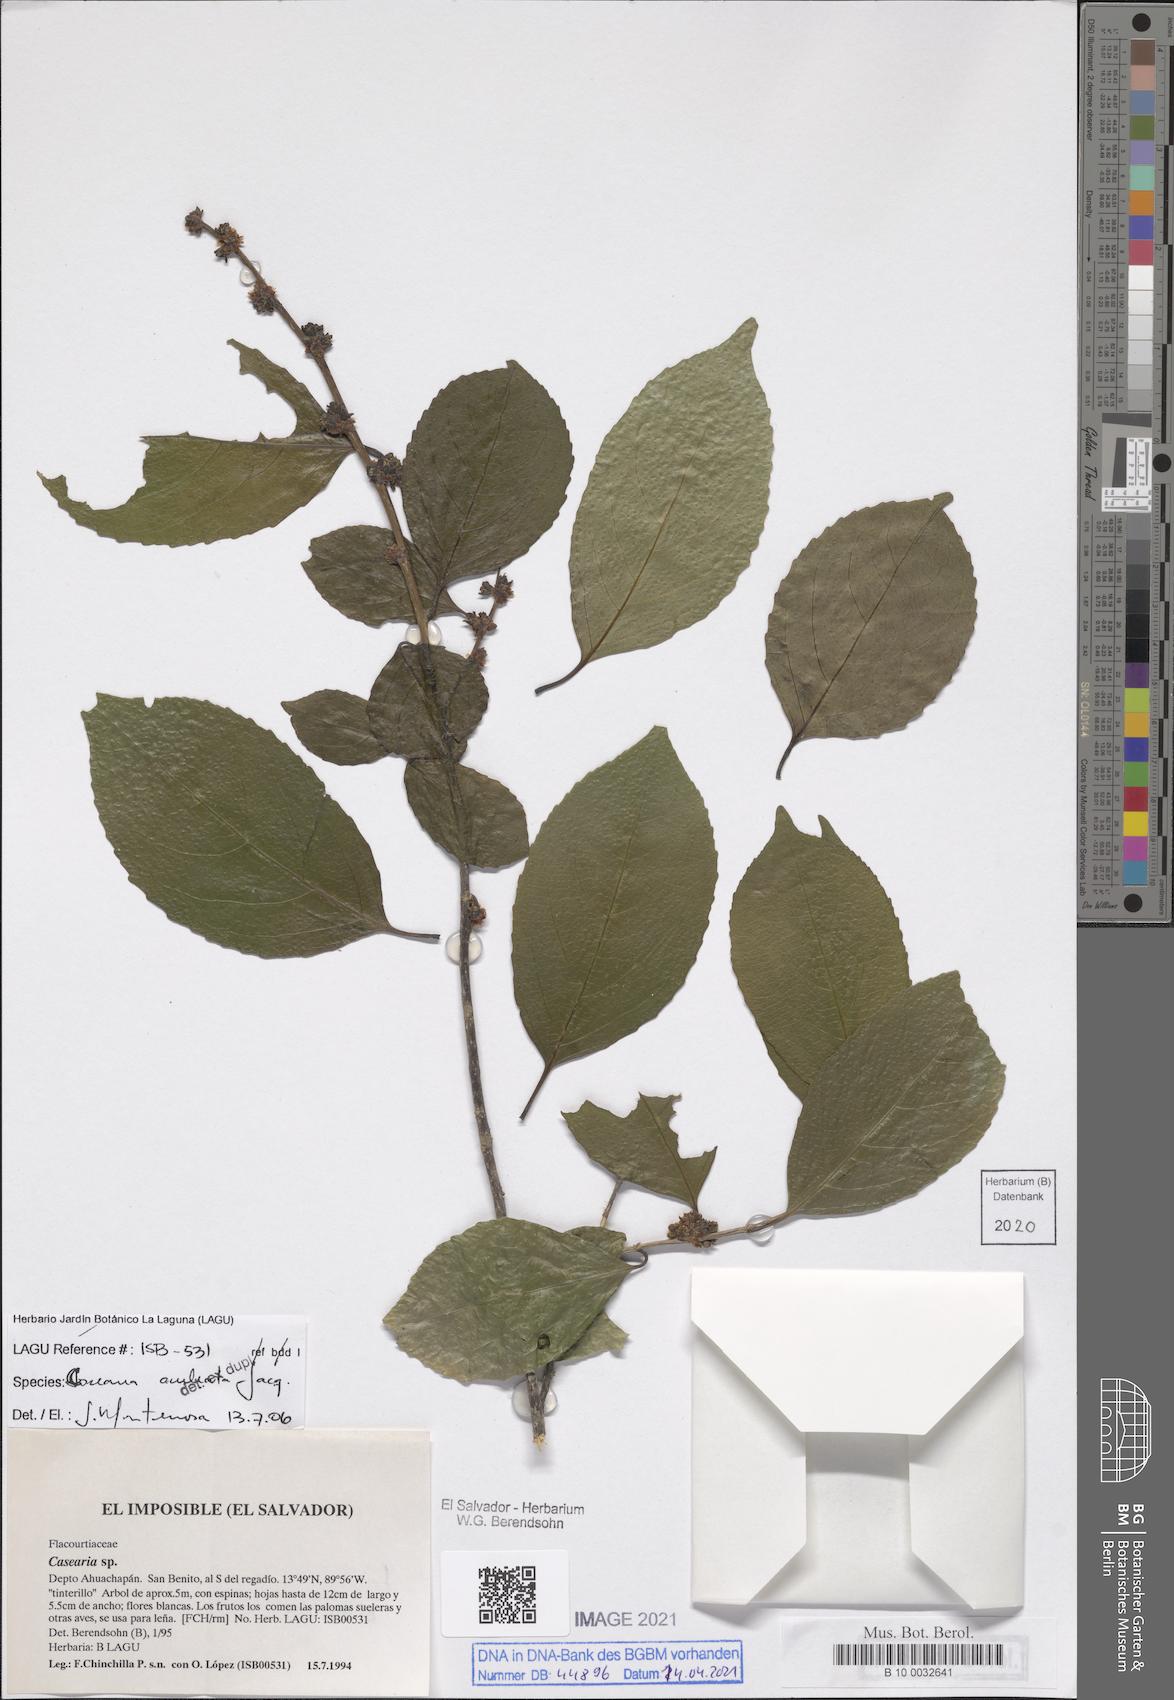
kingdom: Plantae
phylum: Tracheophyta
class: Magnoliopsida
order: Malpighiales
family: Salicaceae
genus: Casearia
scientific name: Casearia aculeata
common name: Cockspur
